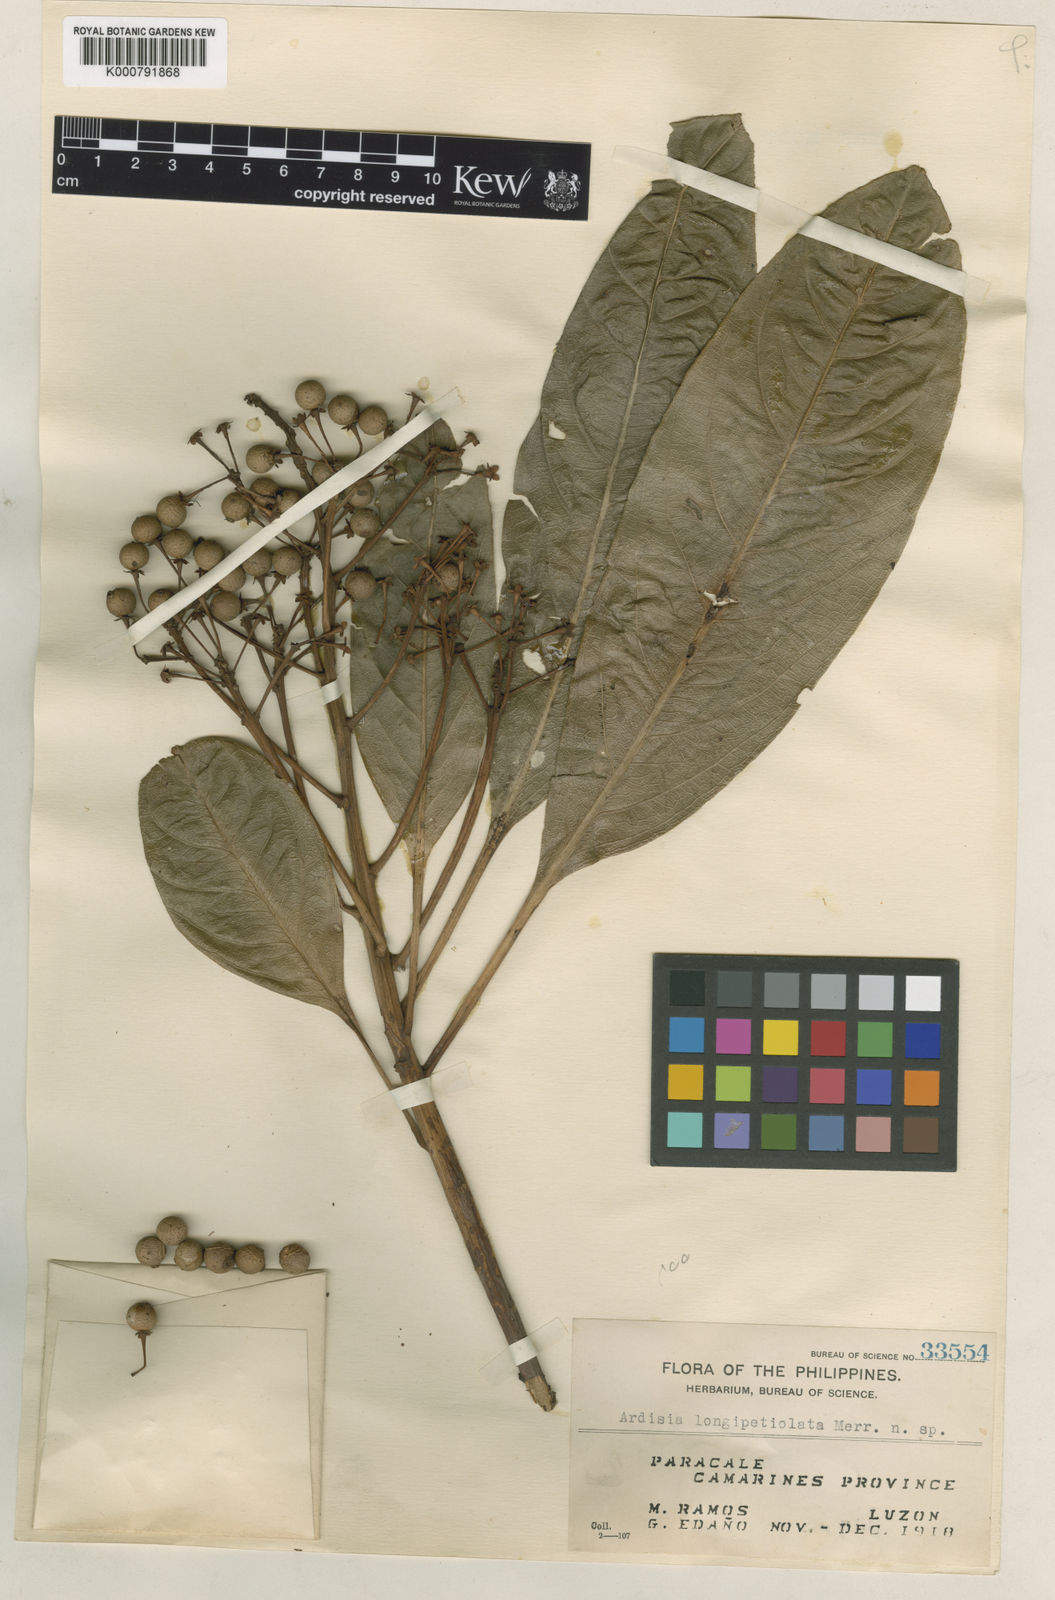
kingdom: Plantae
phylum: Tracheophyta
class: Magnoliopsida
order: Ericales
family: Primulaceae
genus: Ardisia
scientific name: Ardisia longipetiolata
